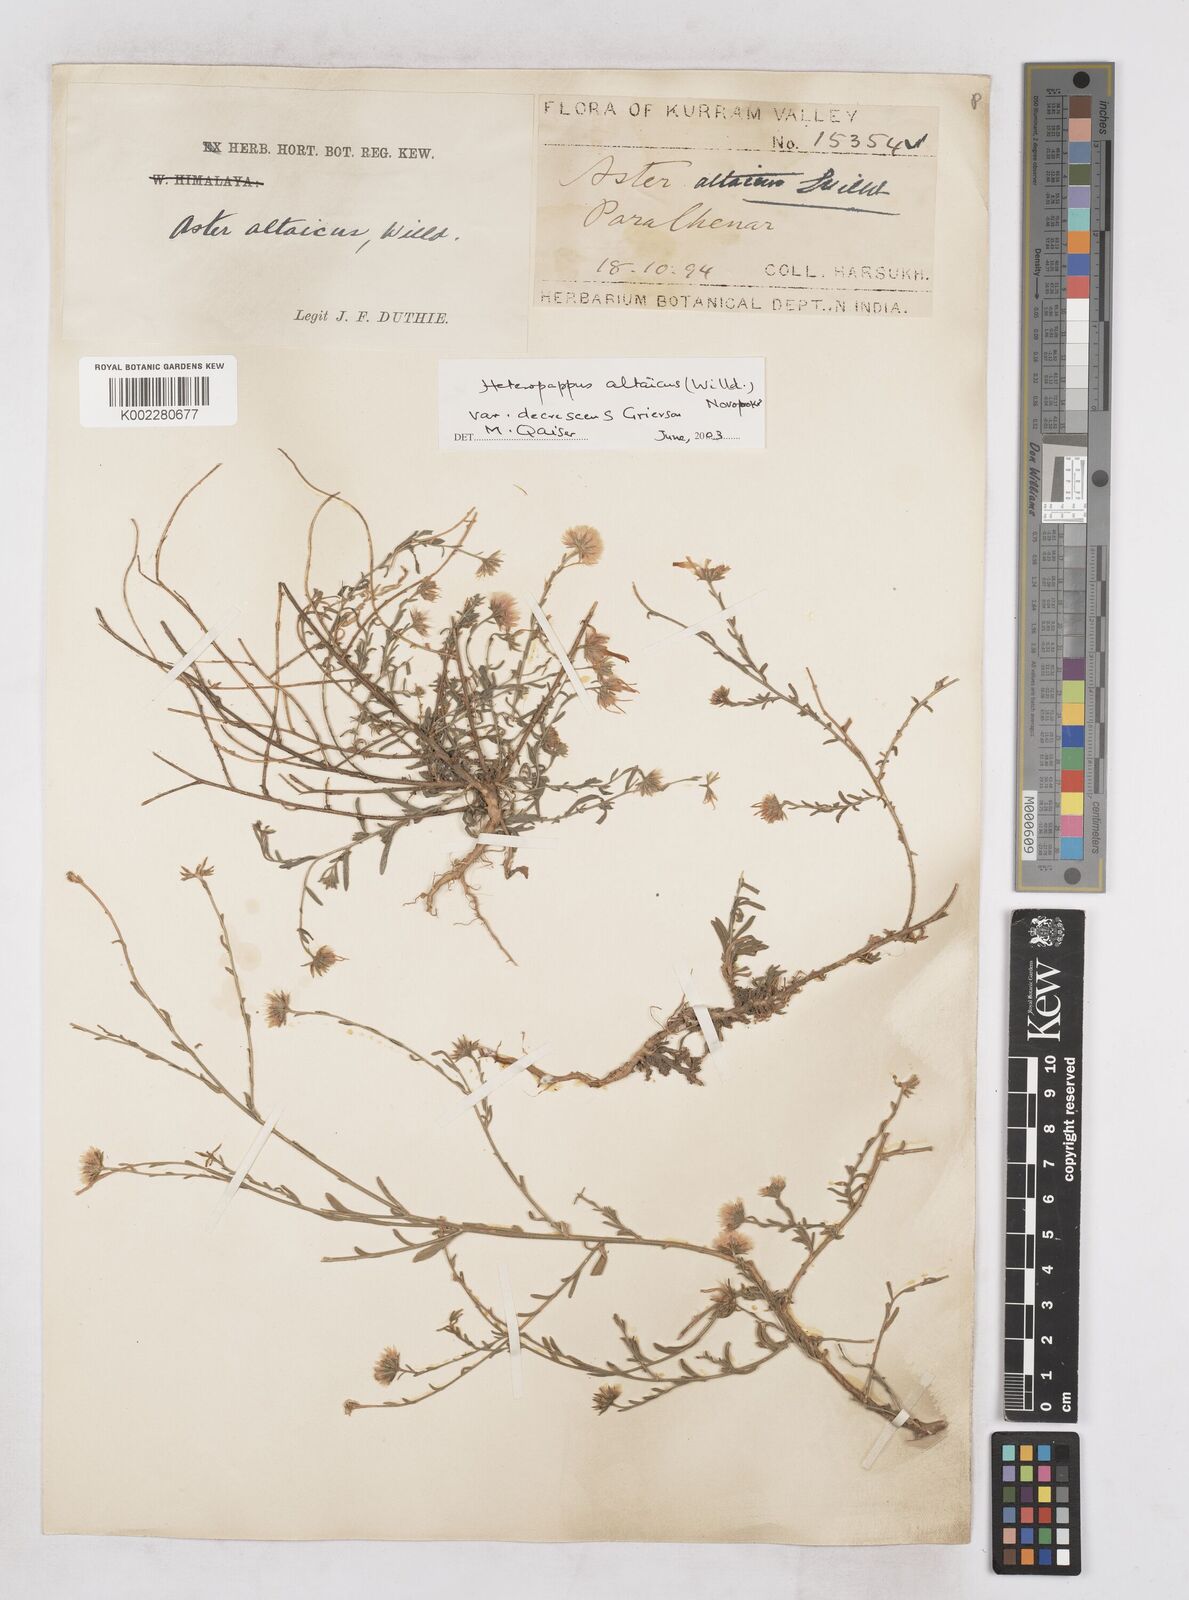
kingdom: Plantae
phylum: Tracheophyta
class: Magnoliopsida
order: Asterales
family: Asteraceae
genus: Heteropappus
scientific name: Heteropappus altaicus
